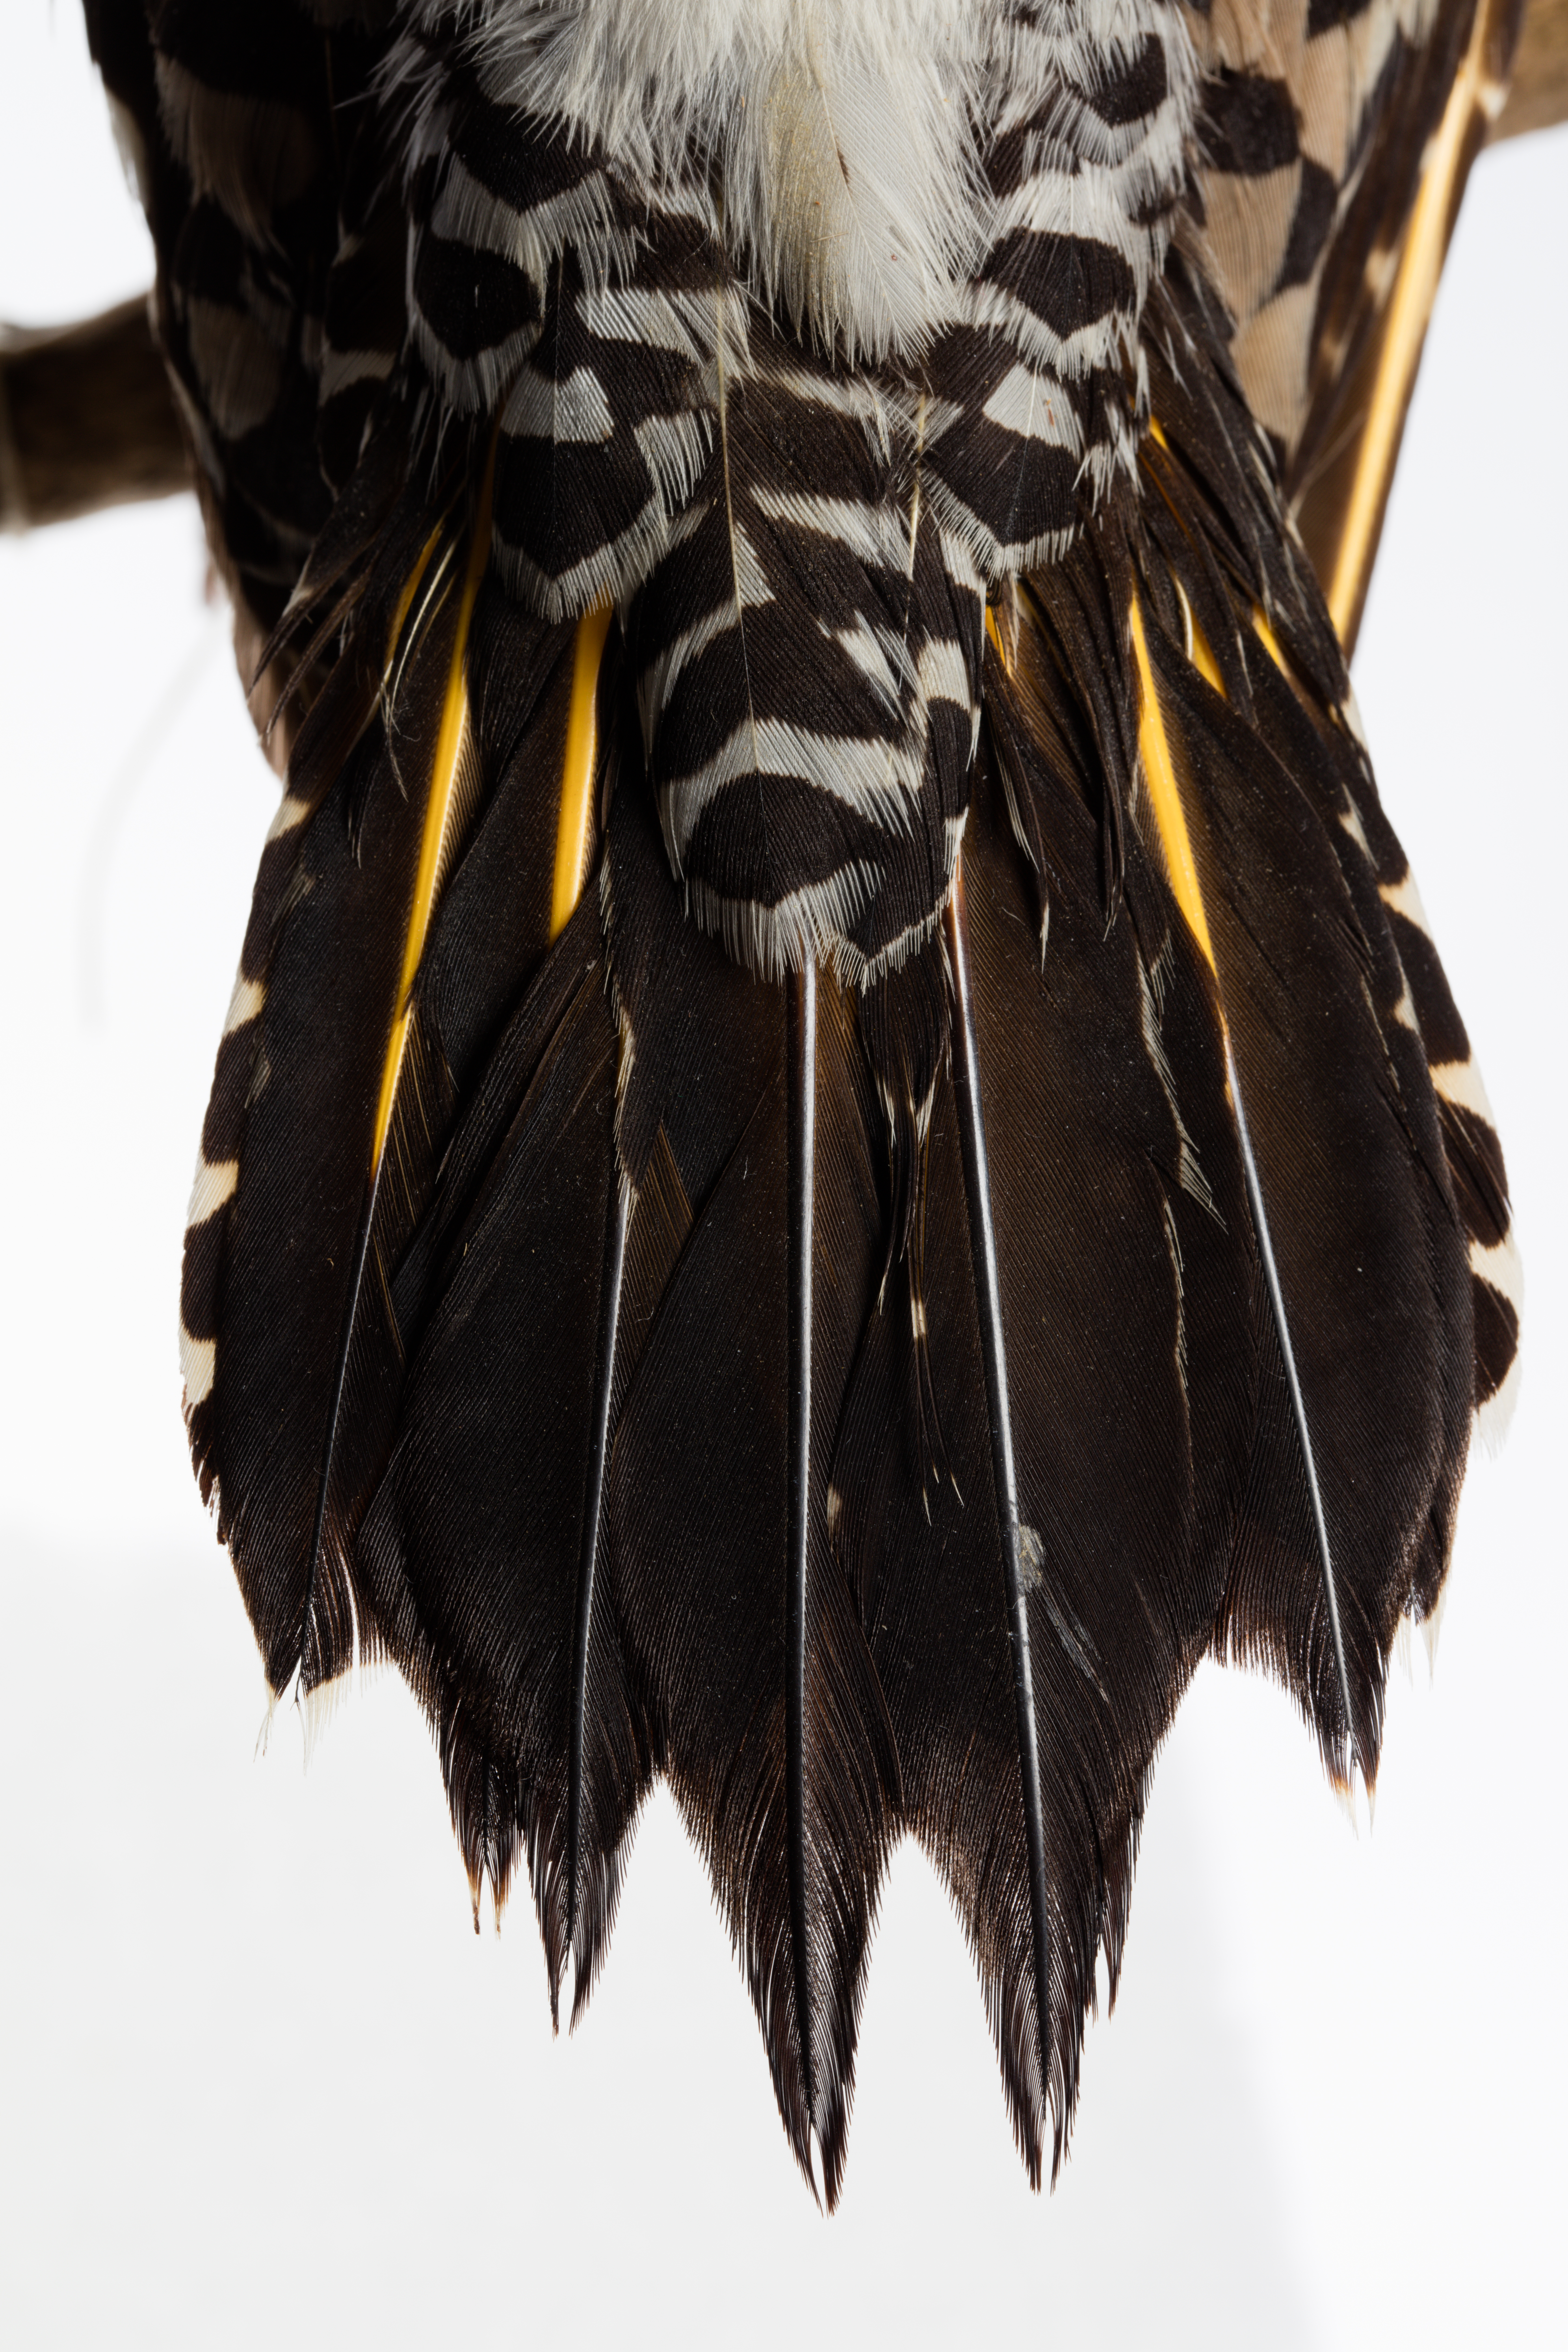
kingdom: Animalia
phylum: Chordata
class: Aves
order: Piciformes
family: Picidae
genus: Colaptes
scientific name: Colaptes auratus
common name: Northern flicker
